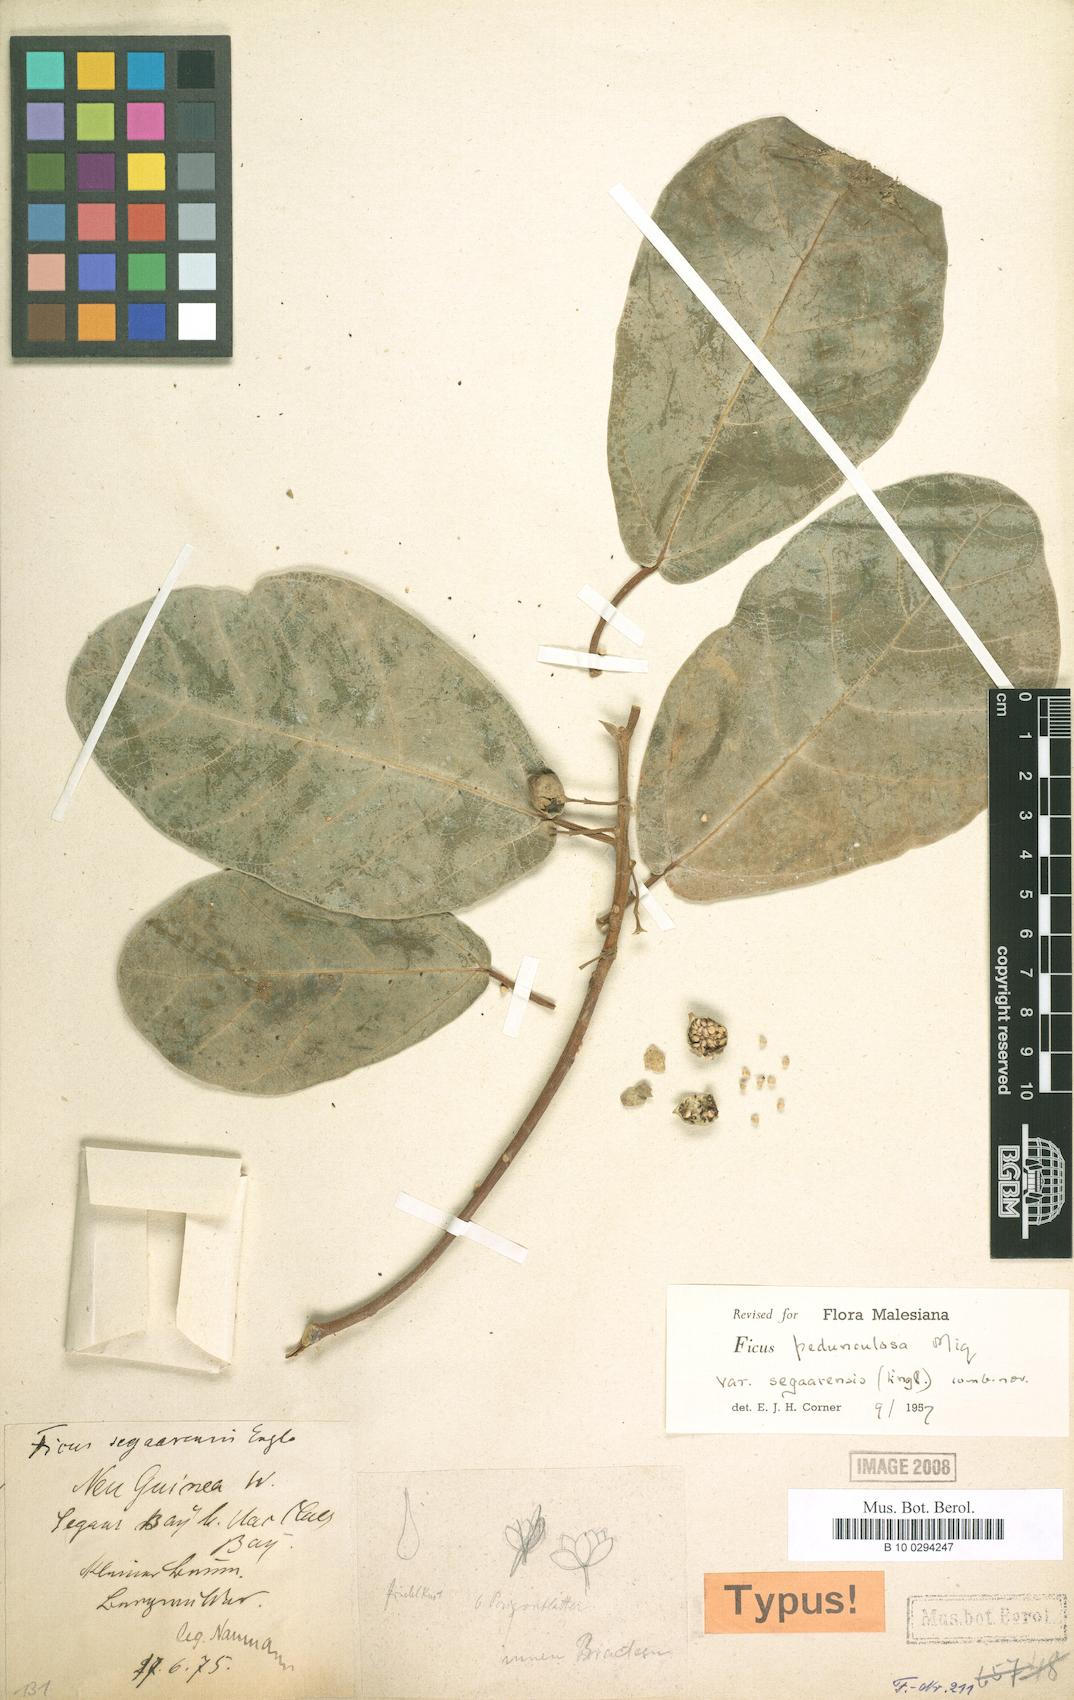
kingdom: Plantae
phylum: Tracheophyta
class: Magnoliopsida
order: Rosales
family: Moraceae
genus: Ficus
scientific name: Ficus pedunculosa
